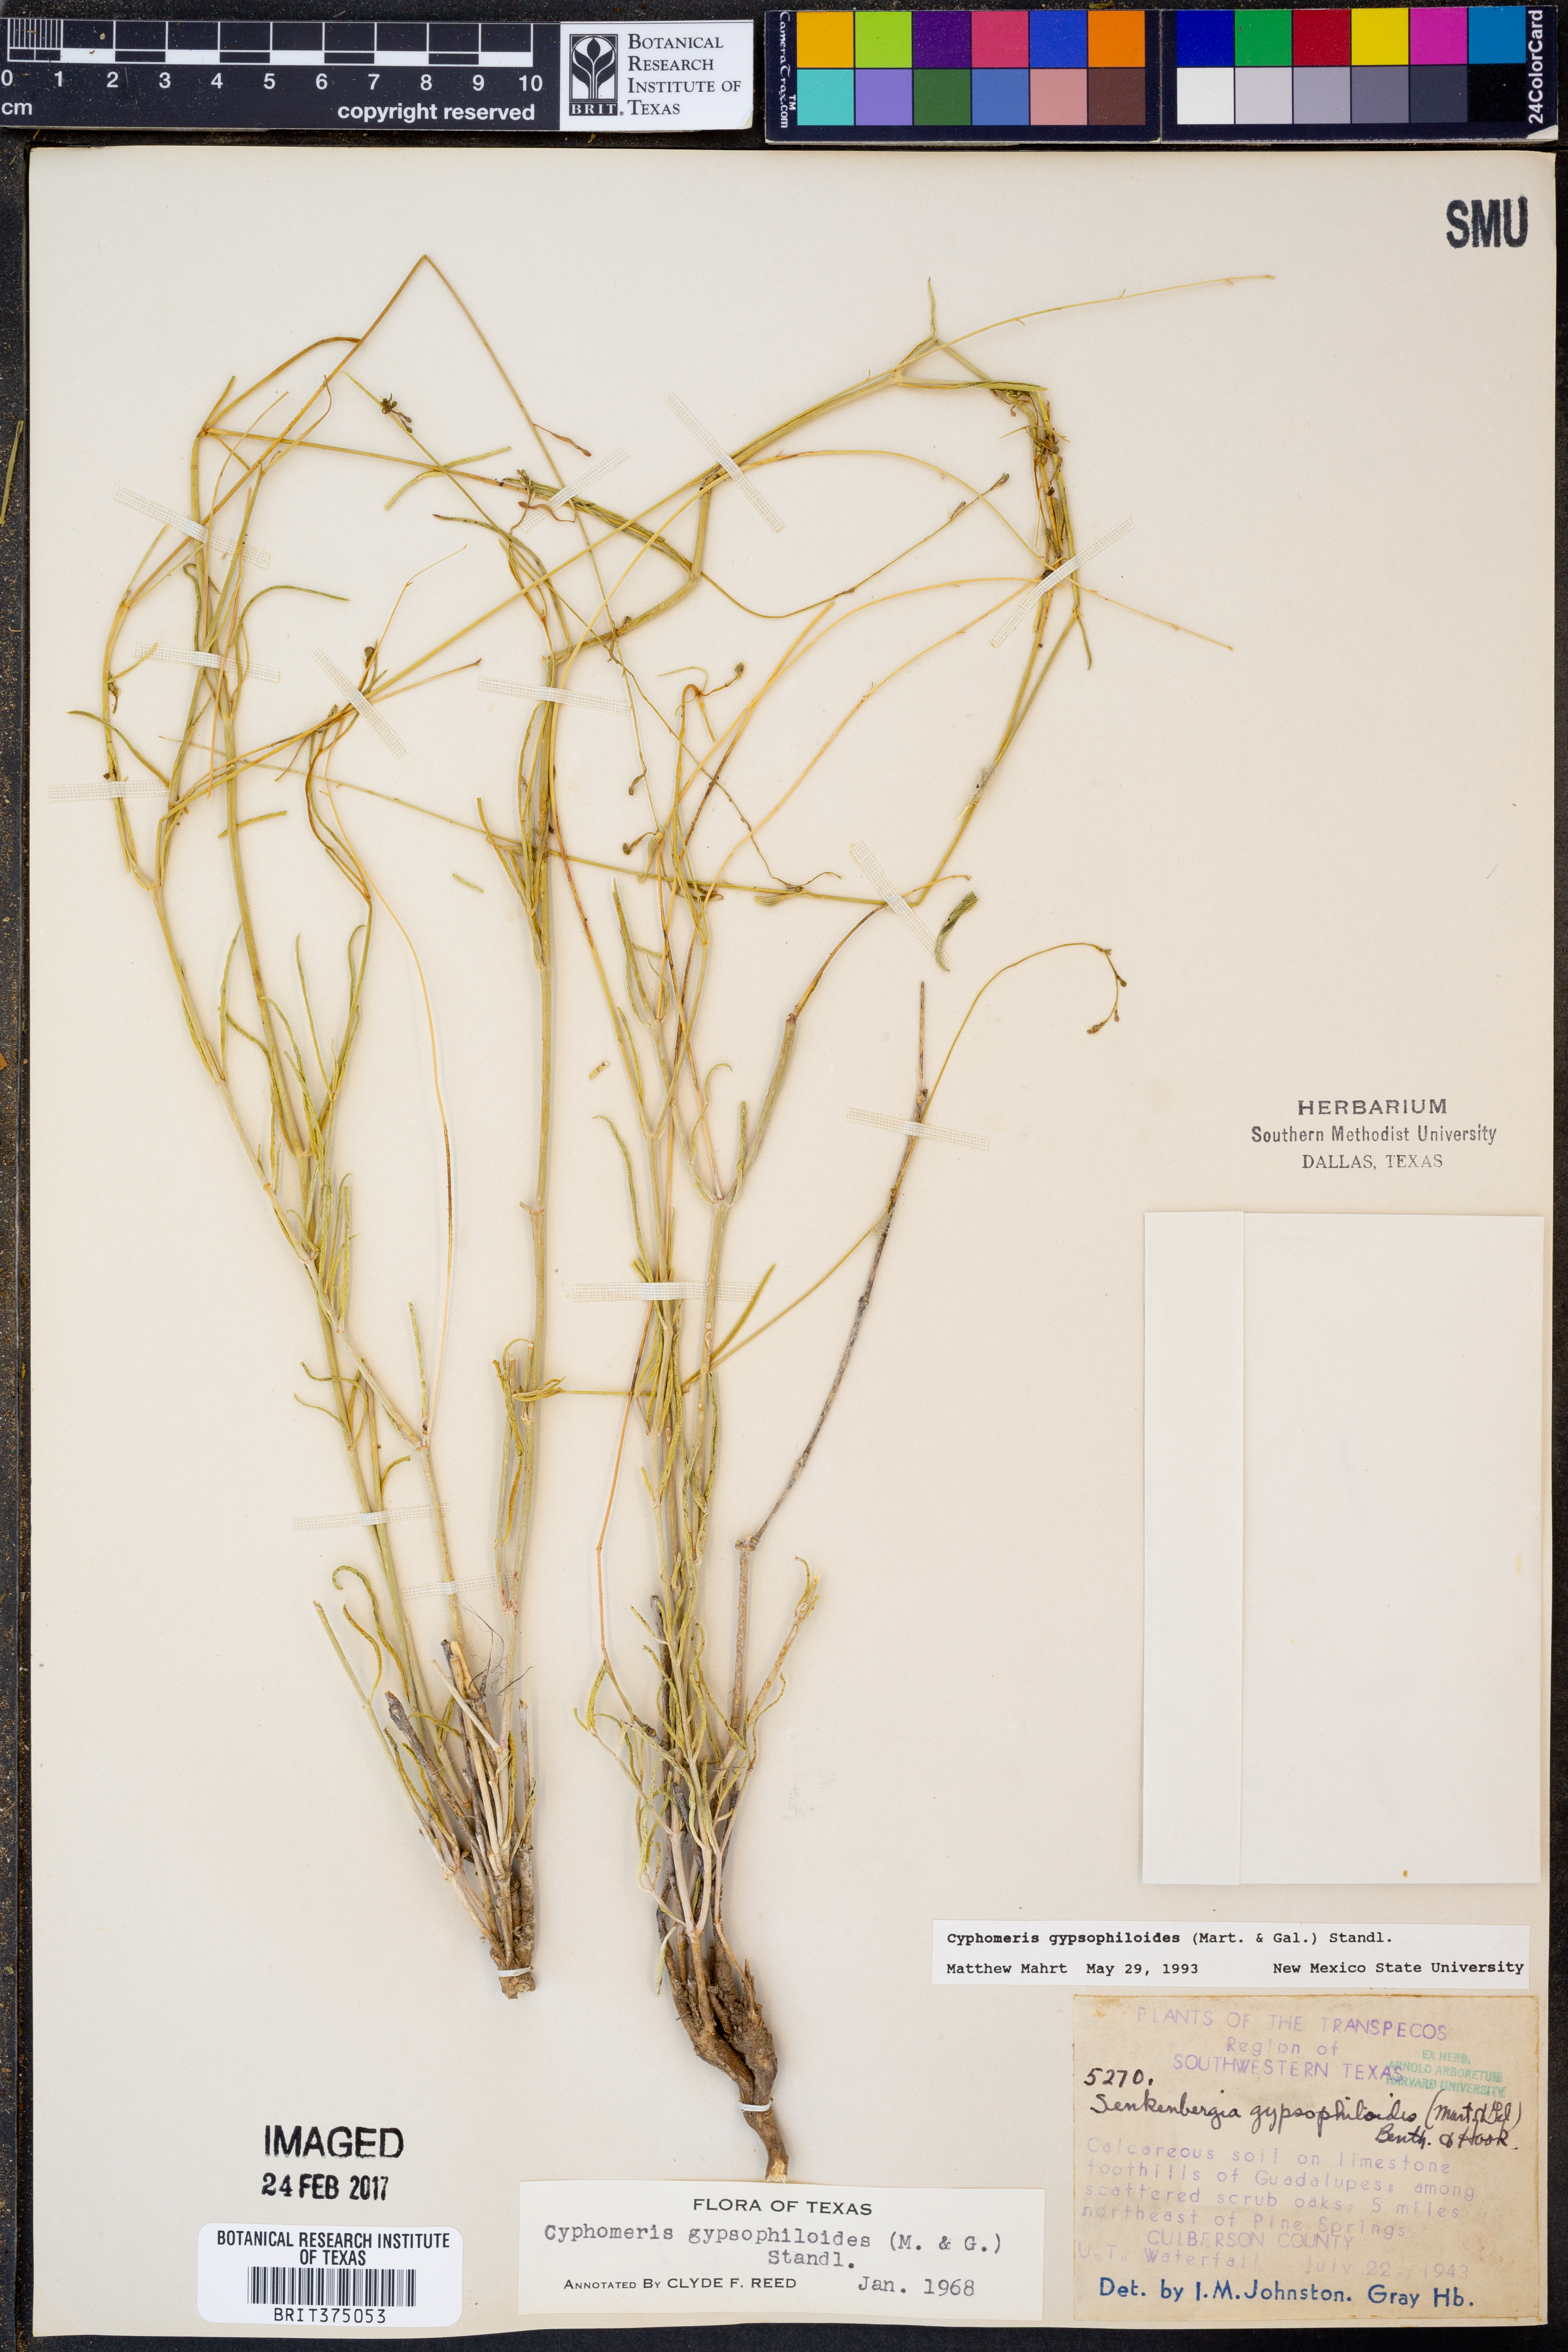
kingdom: Plantae
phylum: Tracheophyta
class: Magnoliopsida
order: Caryophyllales
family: Nyctaginaceae
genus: Cyphomeris
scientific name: Cyphomeris gypsophiloides
